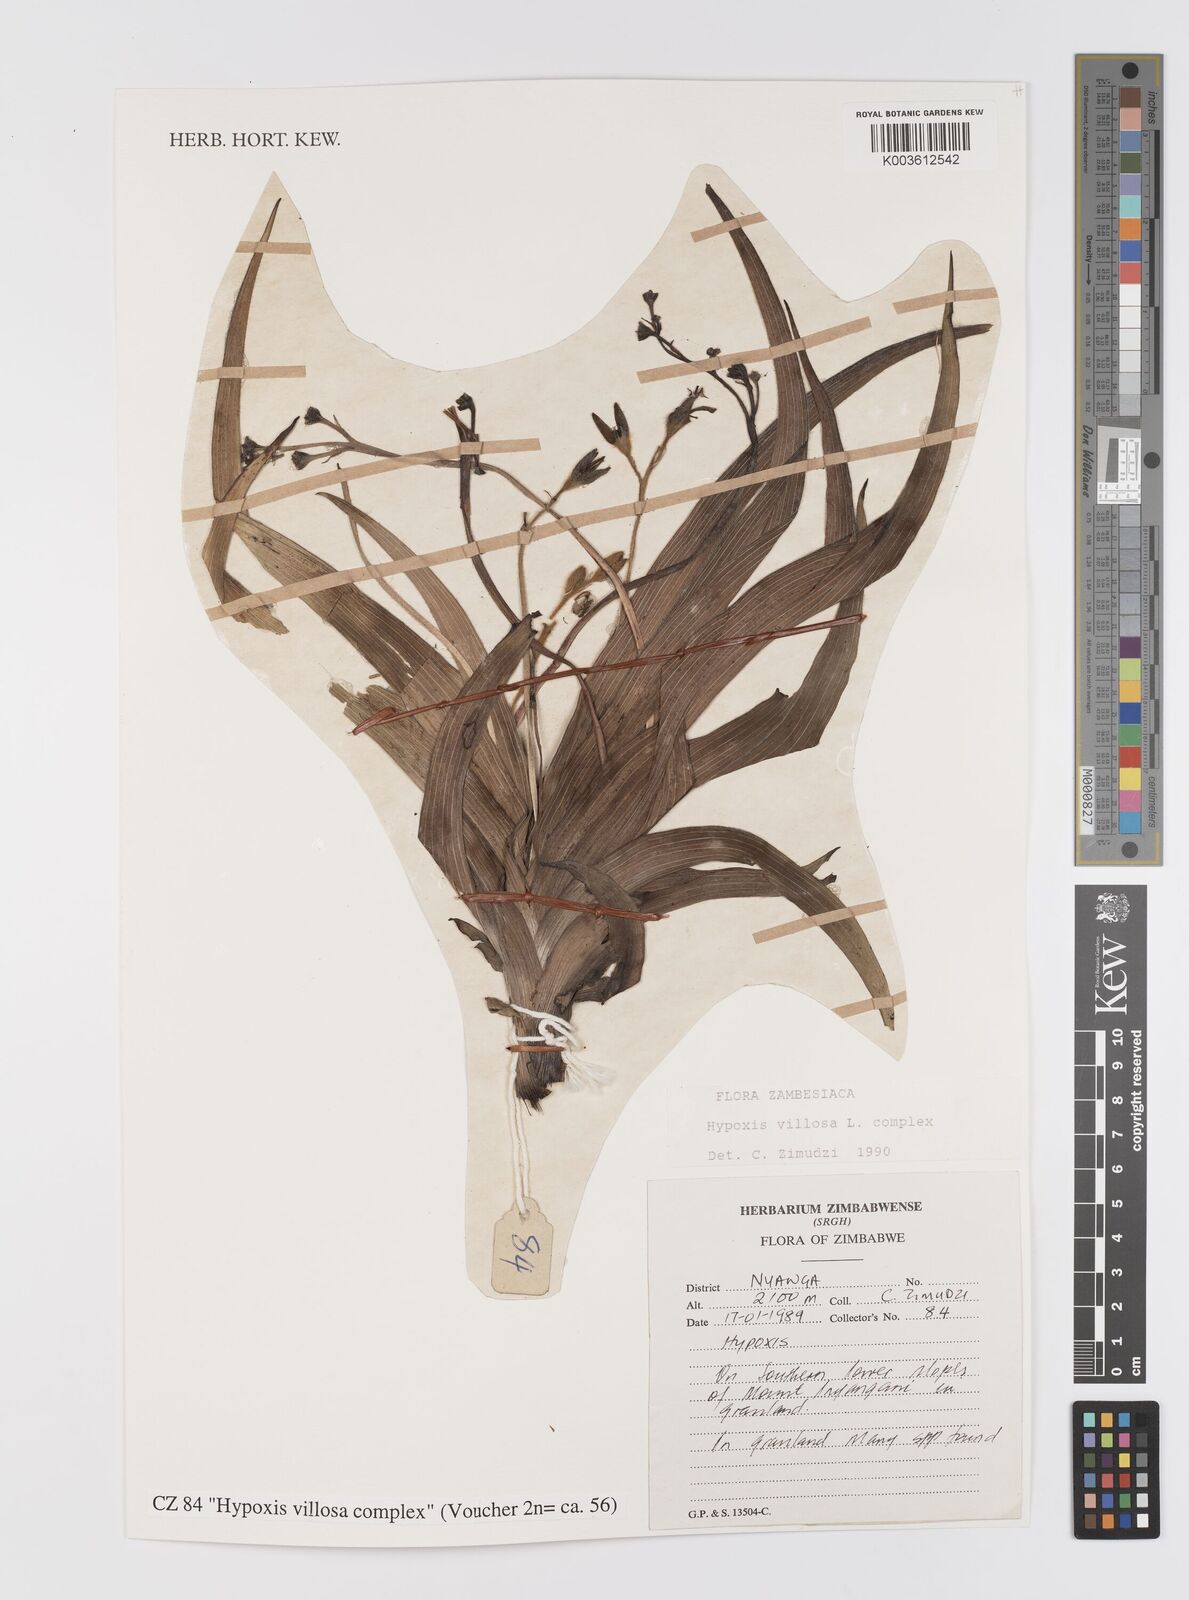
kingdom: Plantae
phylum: Tracheophyta
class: Liliopsida
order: Asparagales
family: Hypoxidaceae
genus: Hypoxis
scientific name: Hypoxis villosa
